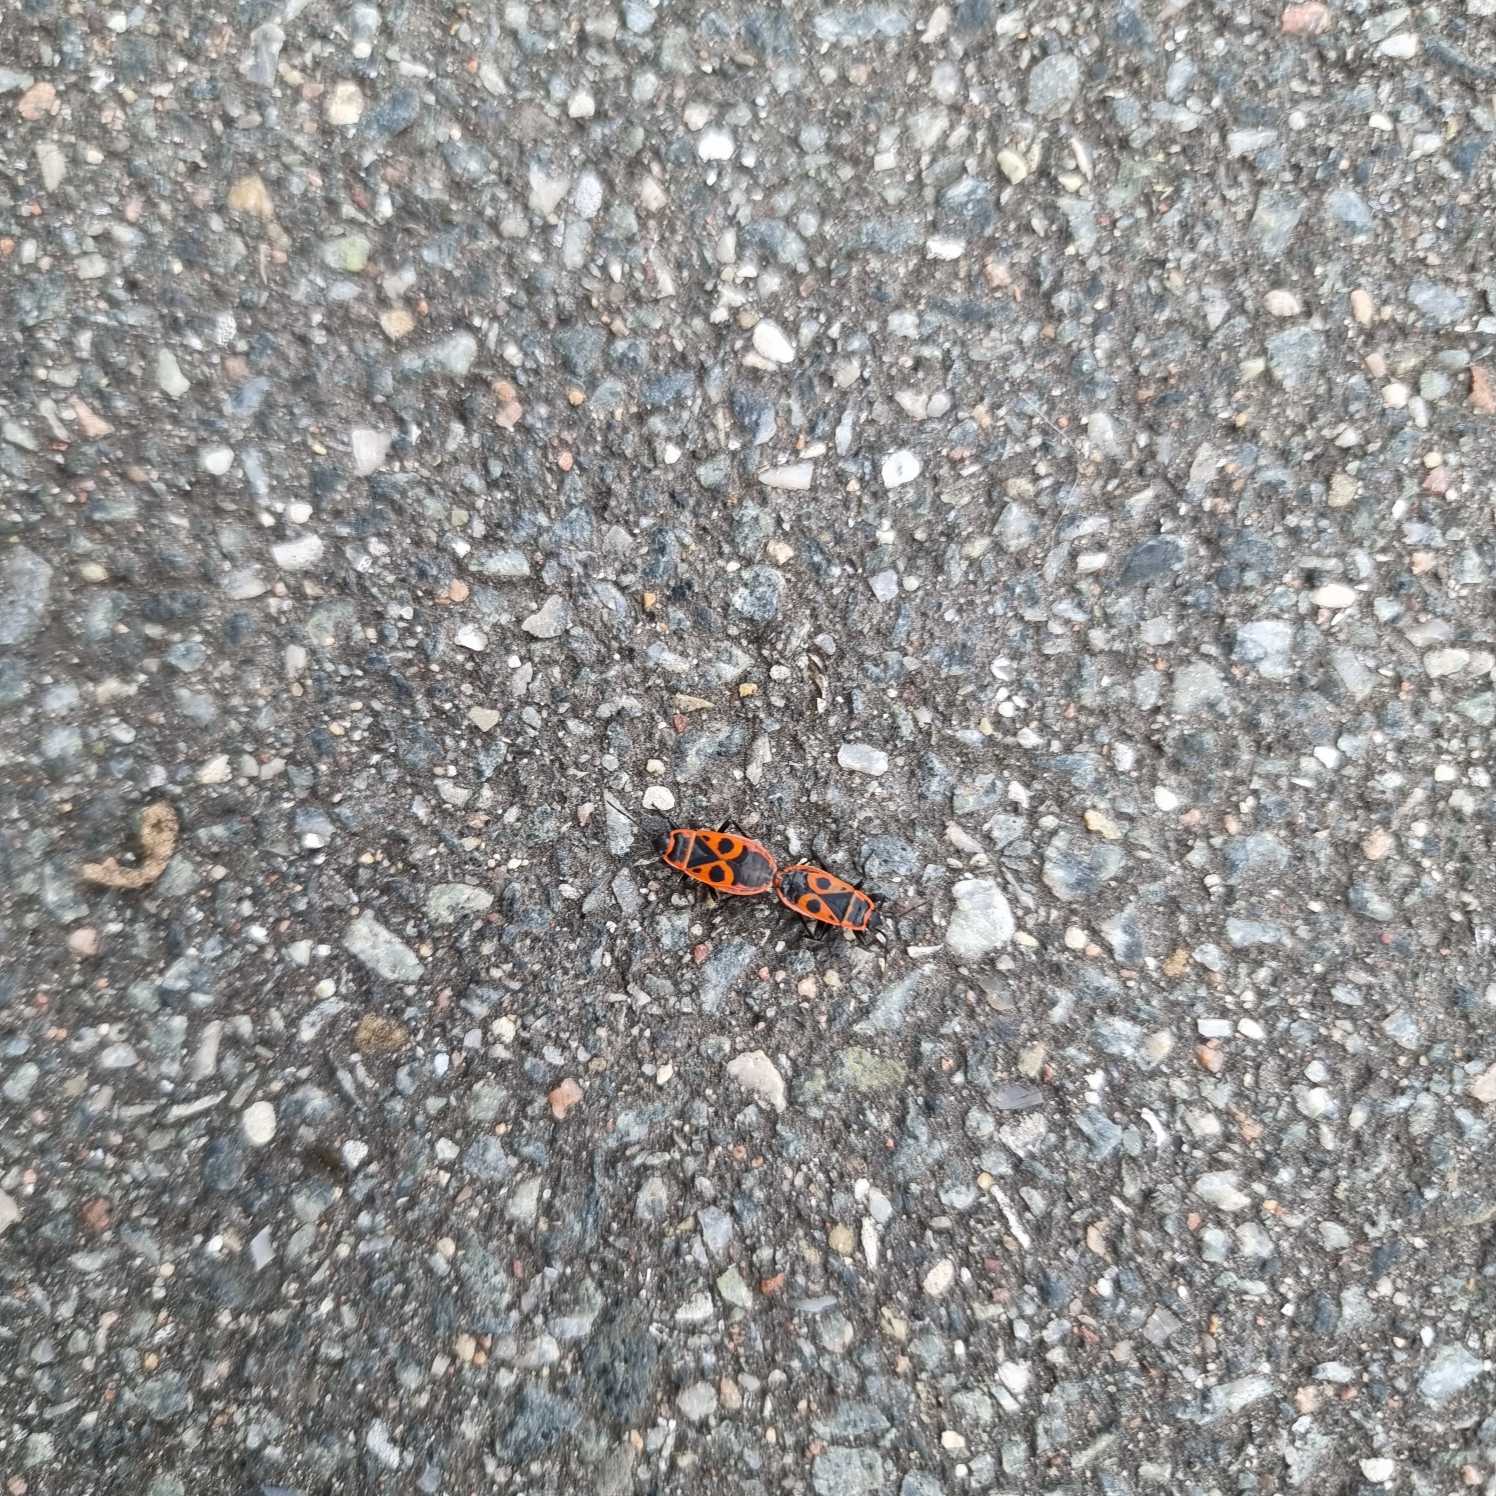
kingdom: Animalia
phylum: Arthropoda
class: Insecta
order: Hemiptera
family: Pyrrhocoridae
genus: Pyrrhocoris
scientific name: Pyrrhocoris apterus
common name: Ildtæge
